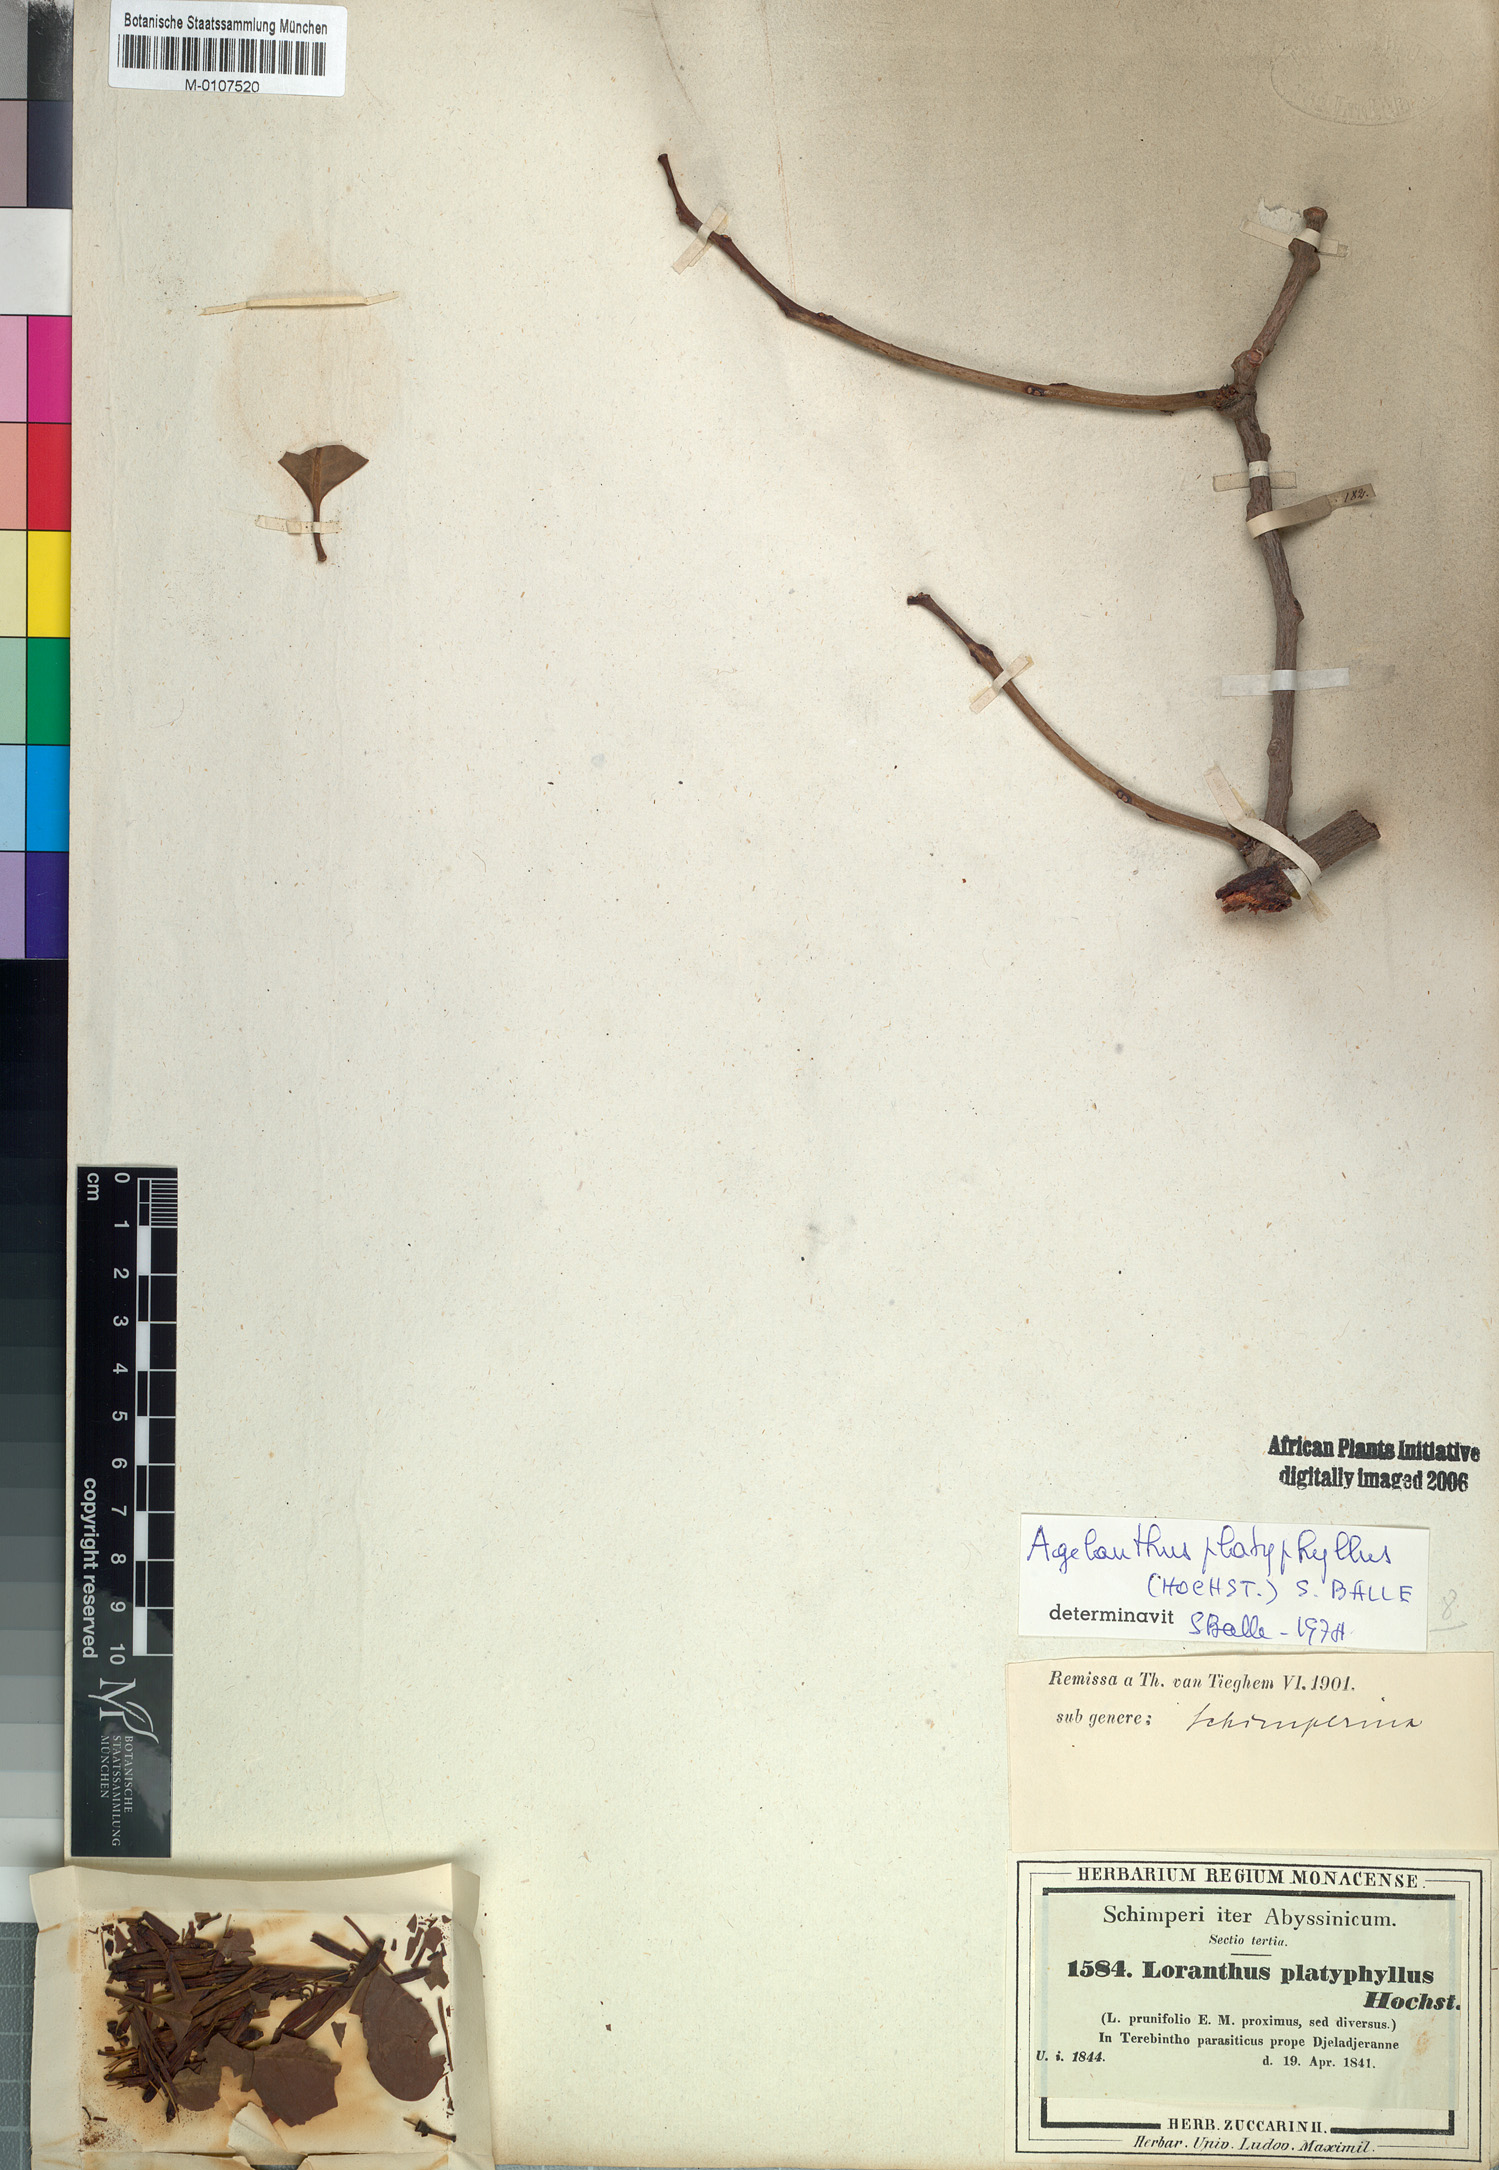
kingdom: Plantae
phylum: Tracheophyta
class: Magnoliopsida
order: Santalales
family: Loranthaceae
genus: Agelanthus
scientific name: Agelanthus platyphyllus
